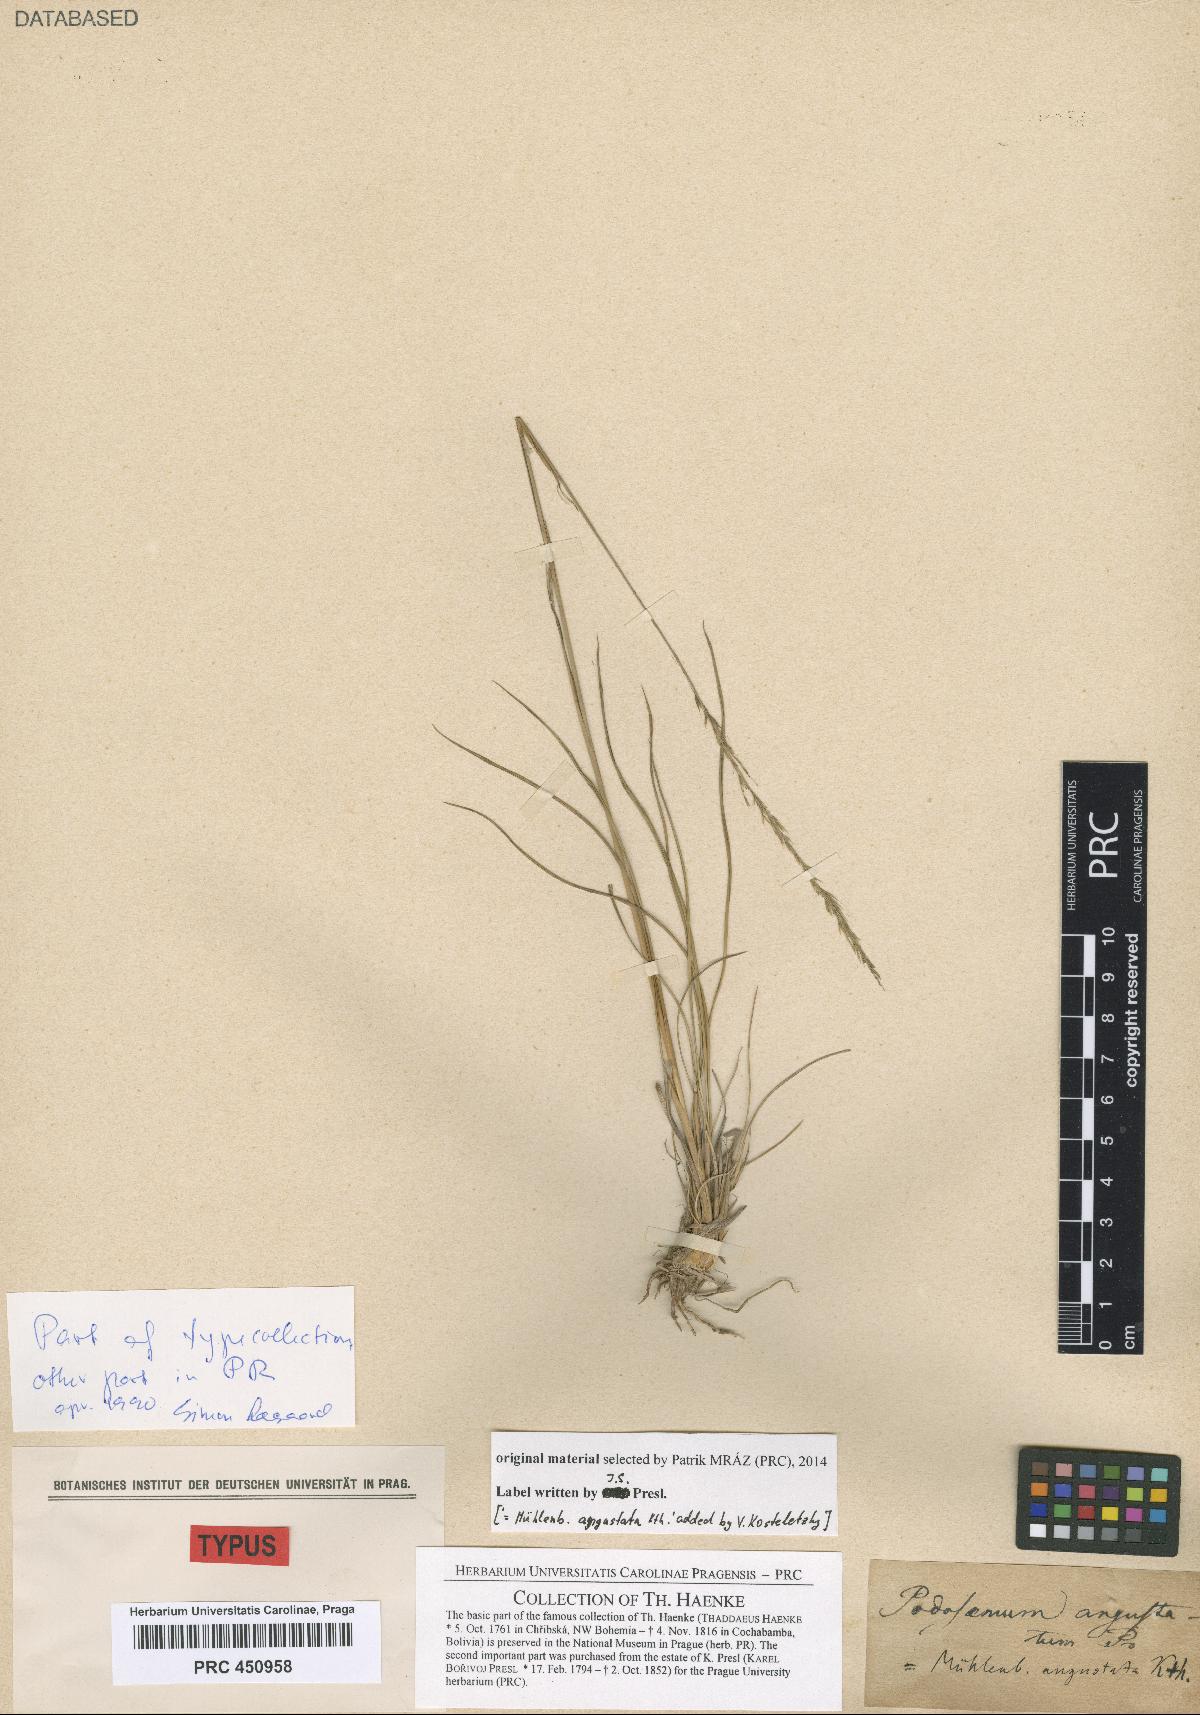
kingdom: Plantae
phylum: Tracheophyta
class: Liliopsida
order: Poales
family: Poaceae
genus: Muhlenbergia
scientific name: Muhlenbergia angustata
